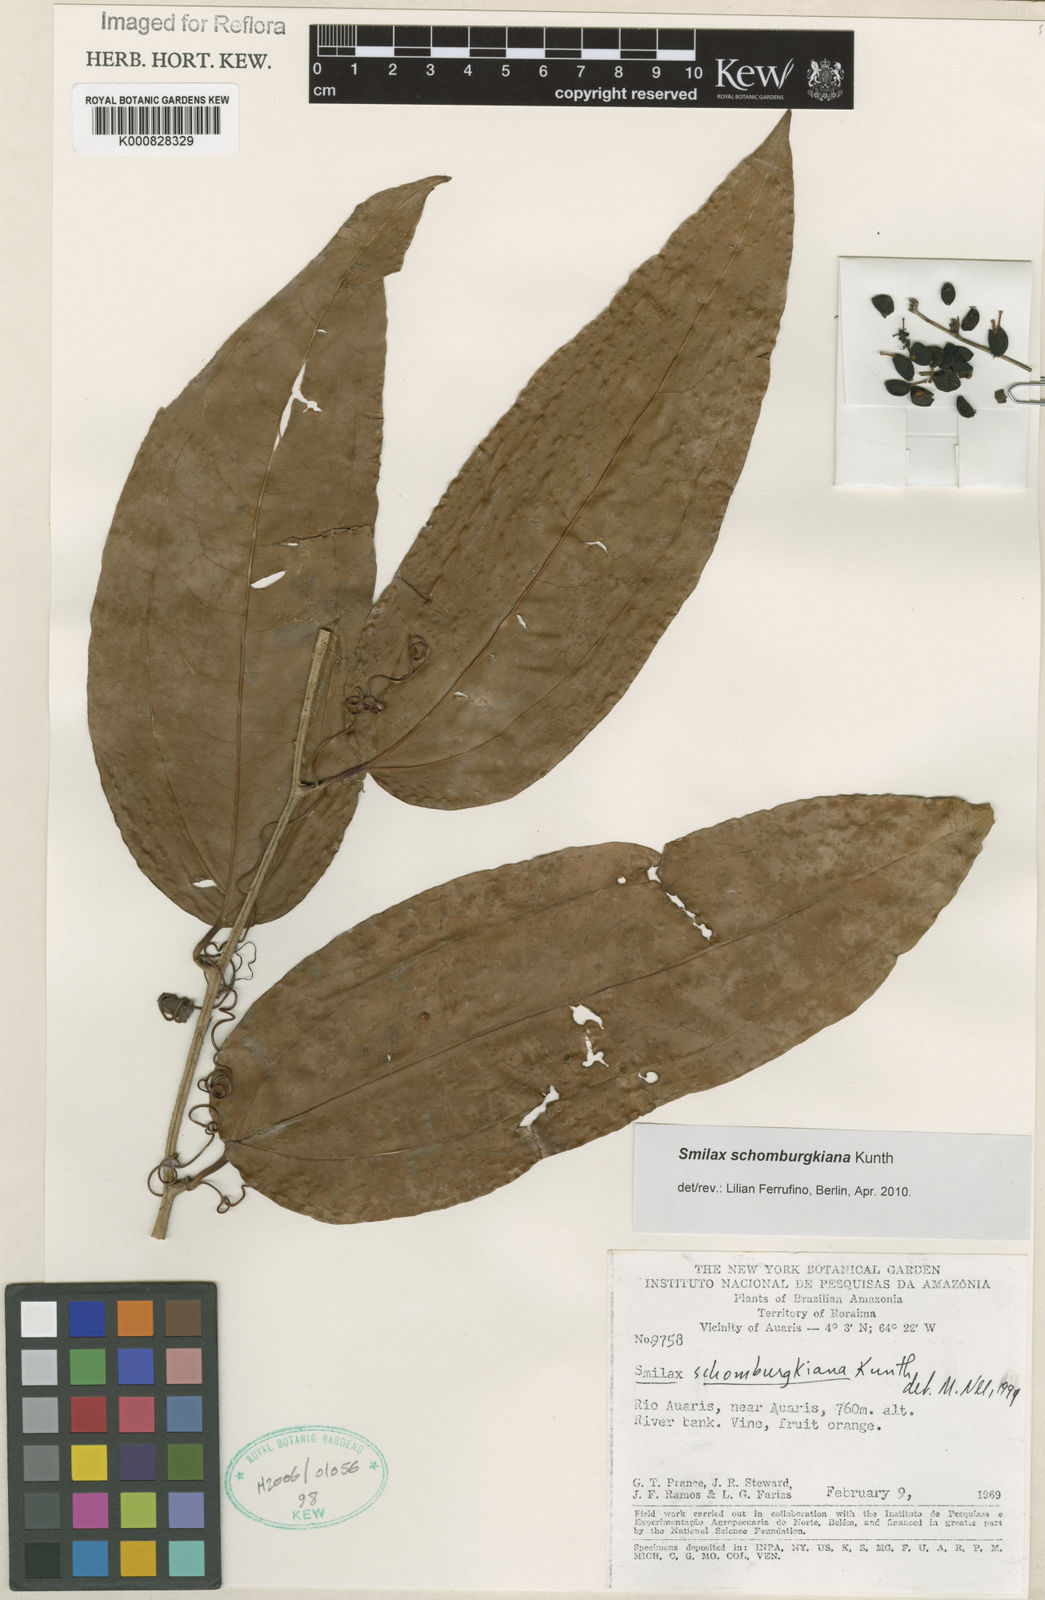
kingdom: Plantae
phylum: Tracheophyta
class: Liliopsida
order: Liliales
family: Smilacaceae
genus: Smilax
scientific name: Smilax schomburgkiana
